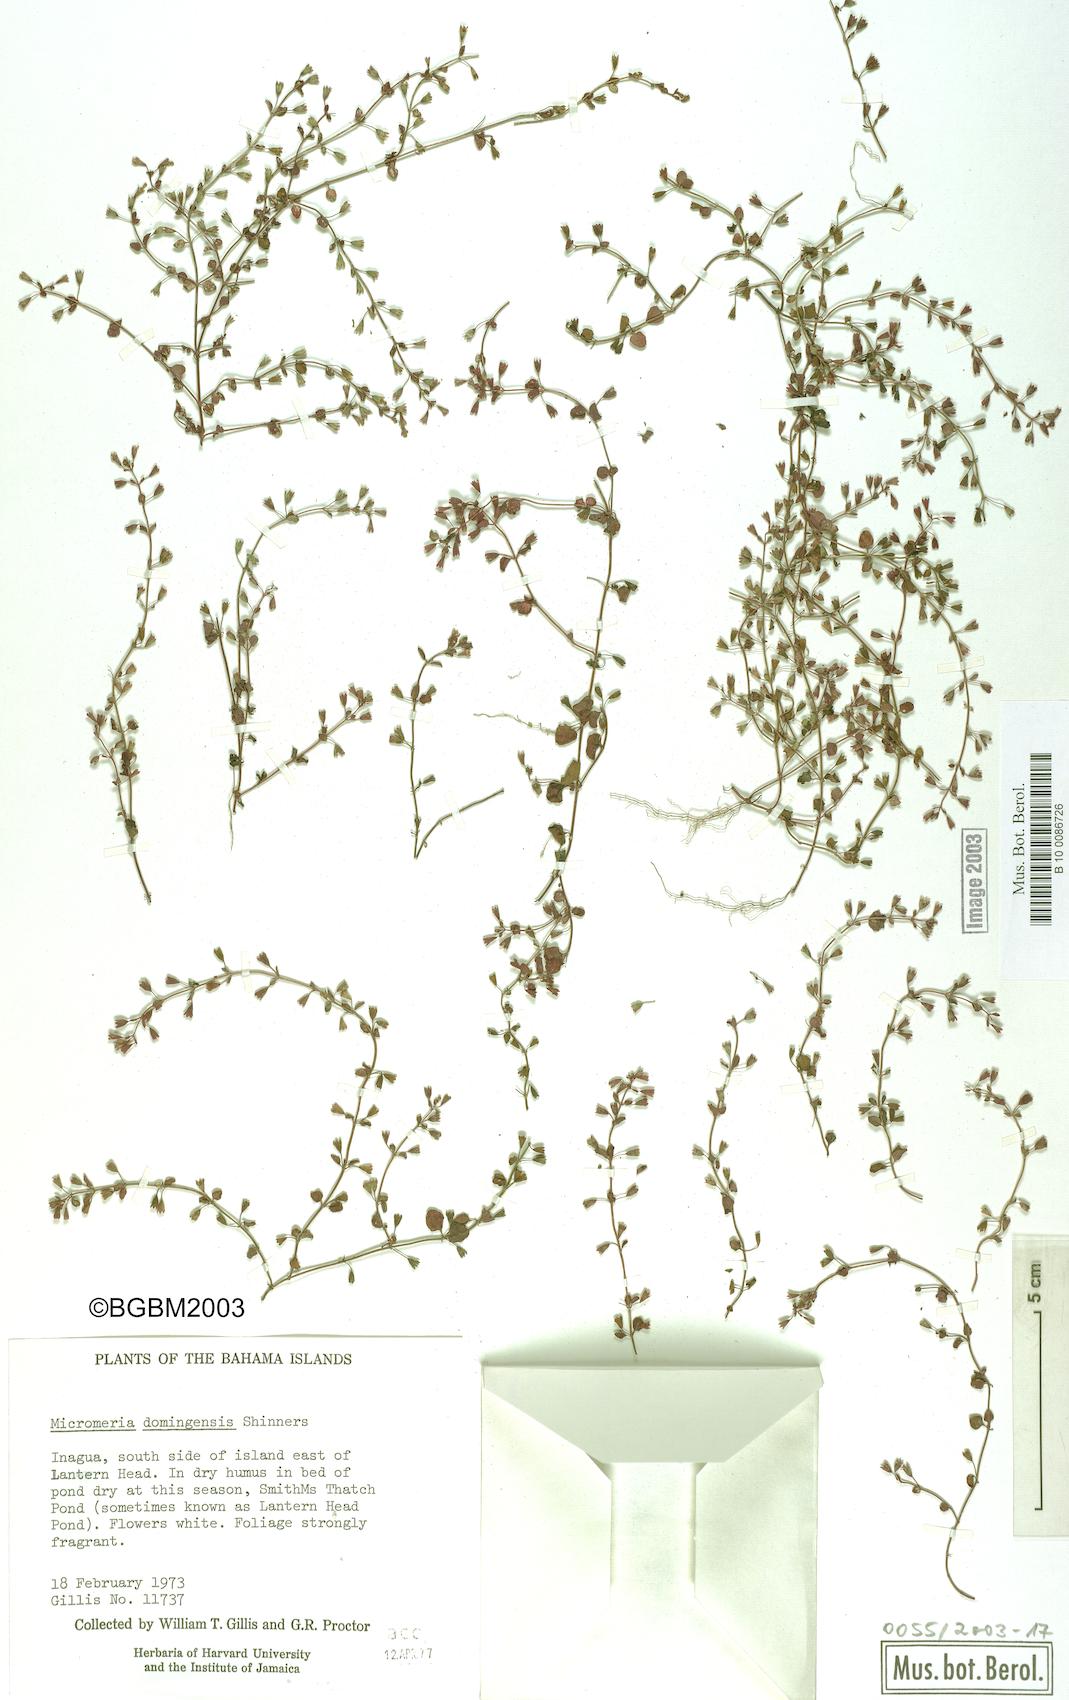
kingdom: Plantae
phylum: Tracheophyta
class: Magnoliopsida
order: Lamiales
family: Lamiaceae
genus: Clinopodium
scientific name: Clinopodium brownei
